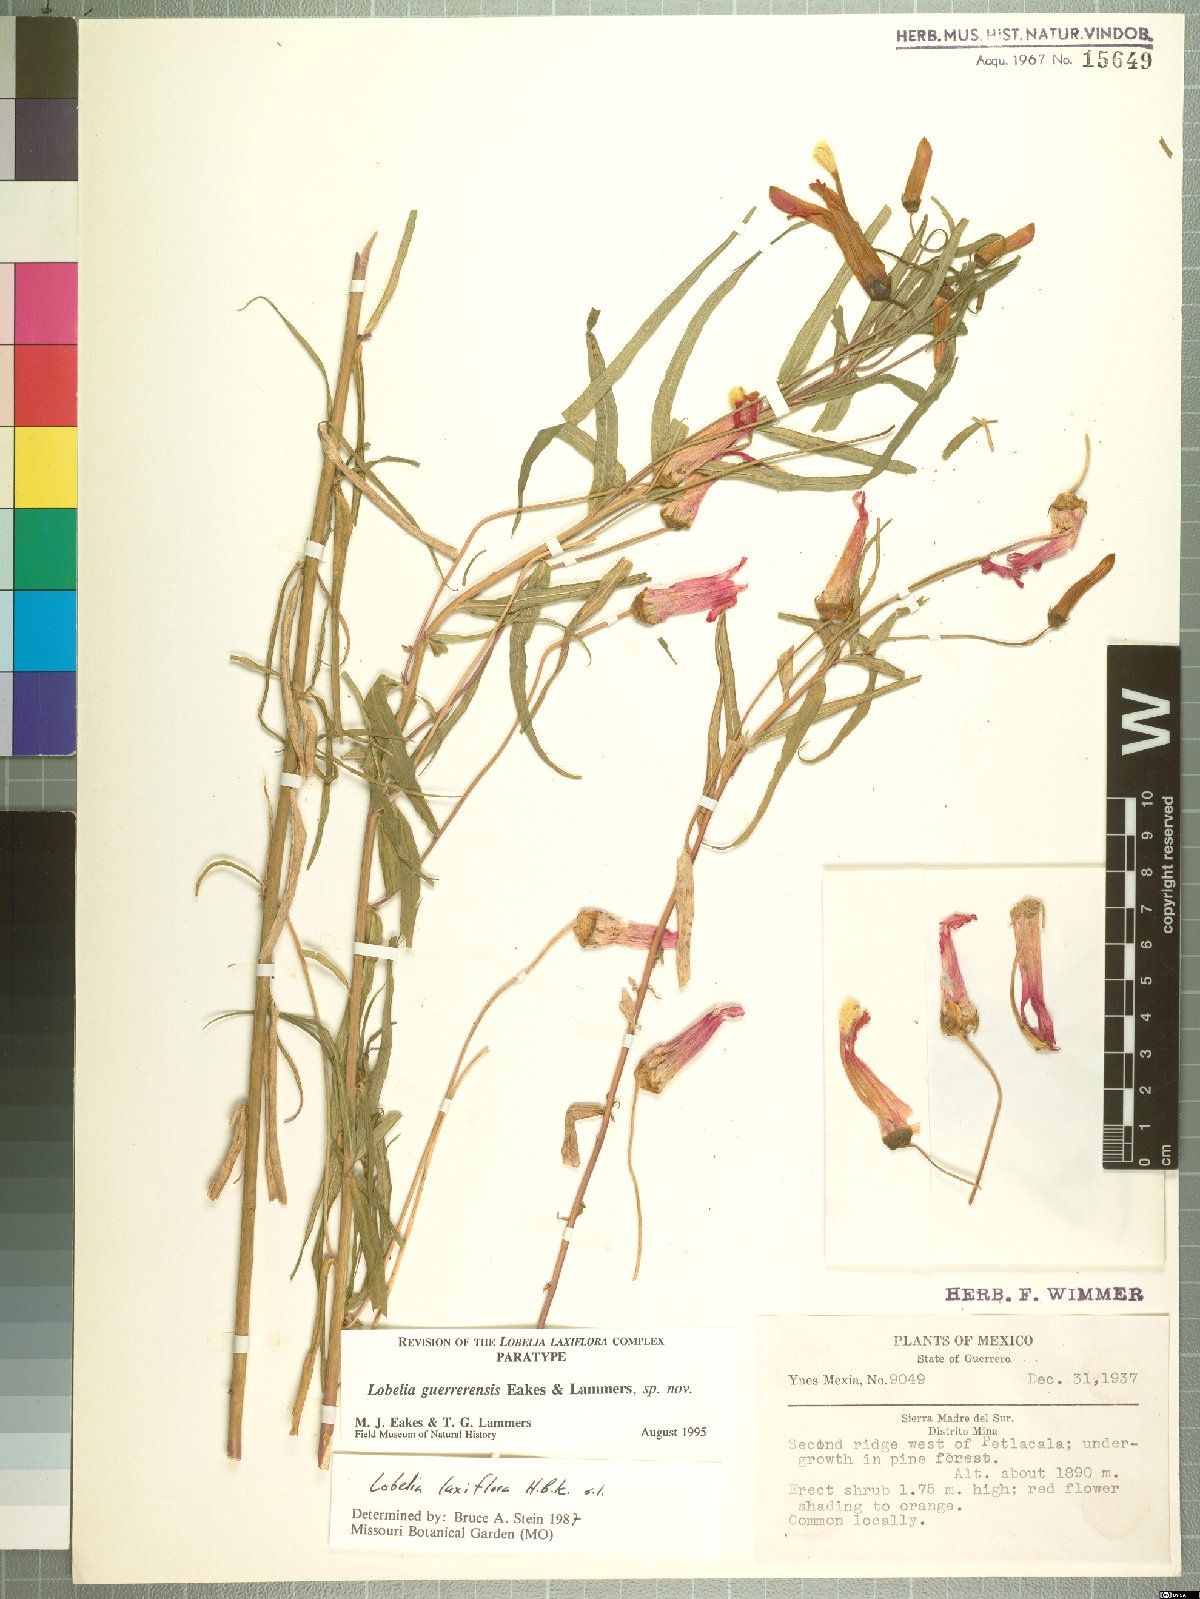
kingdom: Plantae
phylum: Tracheophyta
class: Magnoliopsida
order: Asterales
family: Campanulaceae
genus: Lobelia
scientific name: Lobelia guerrerensis
